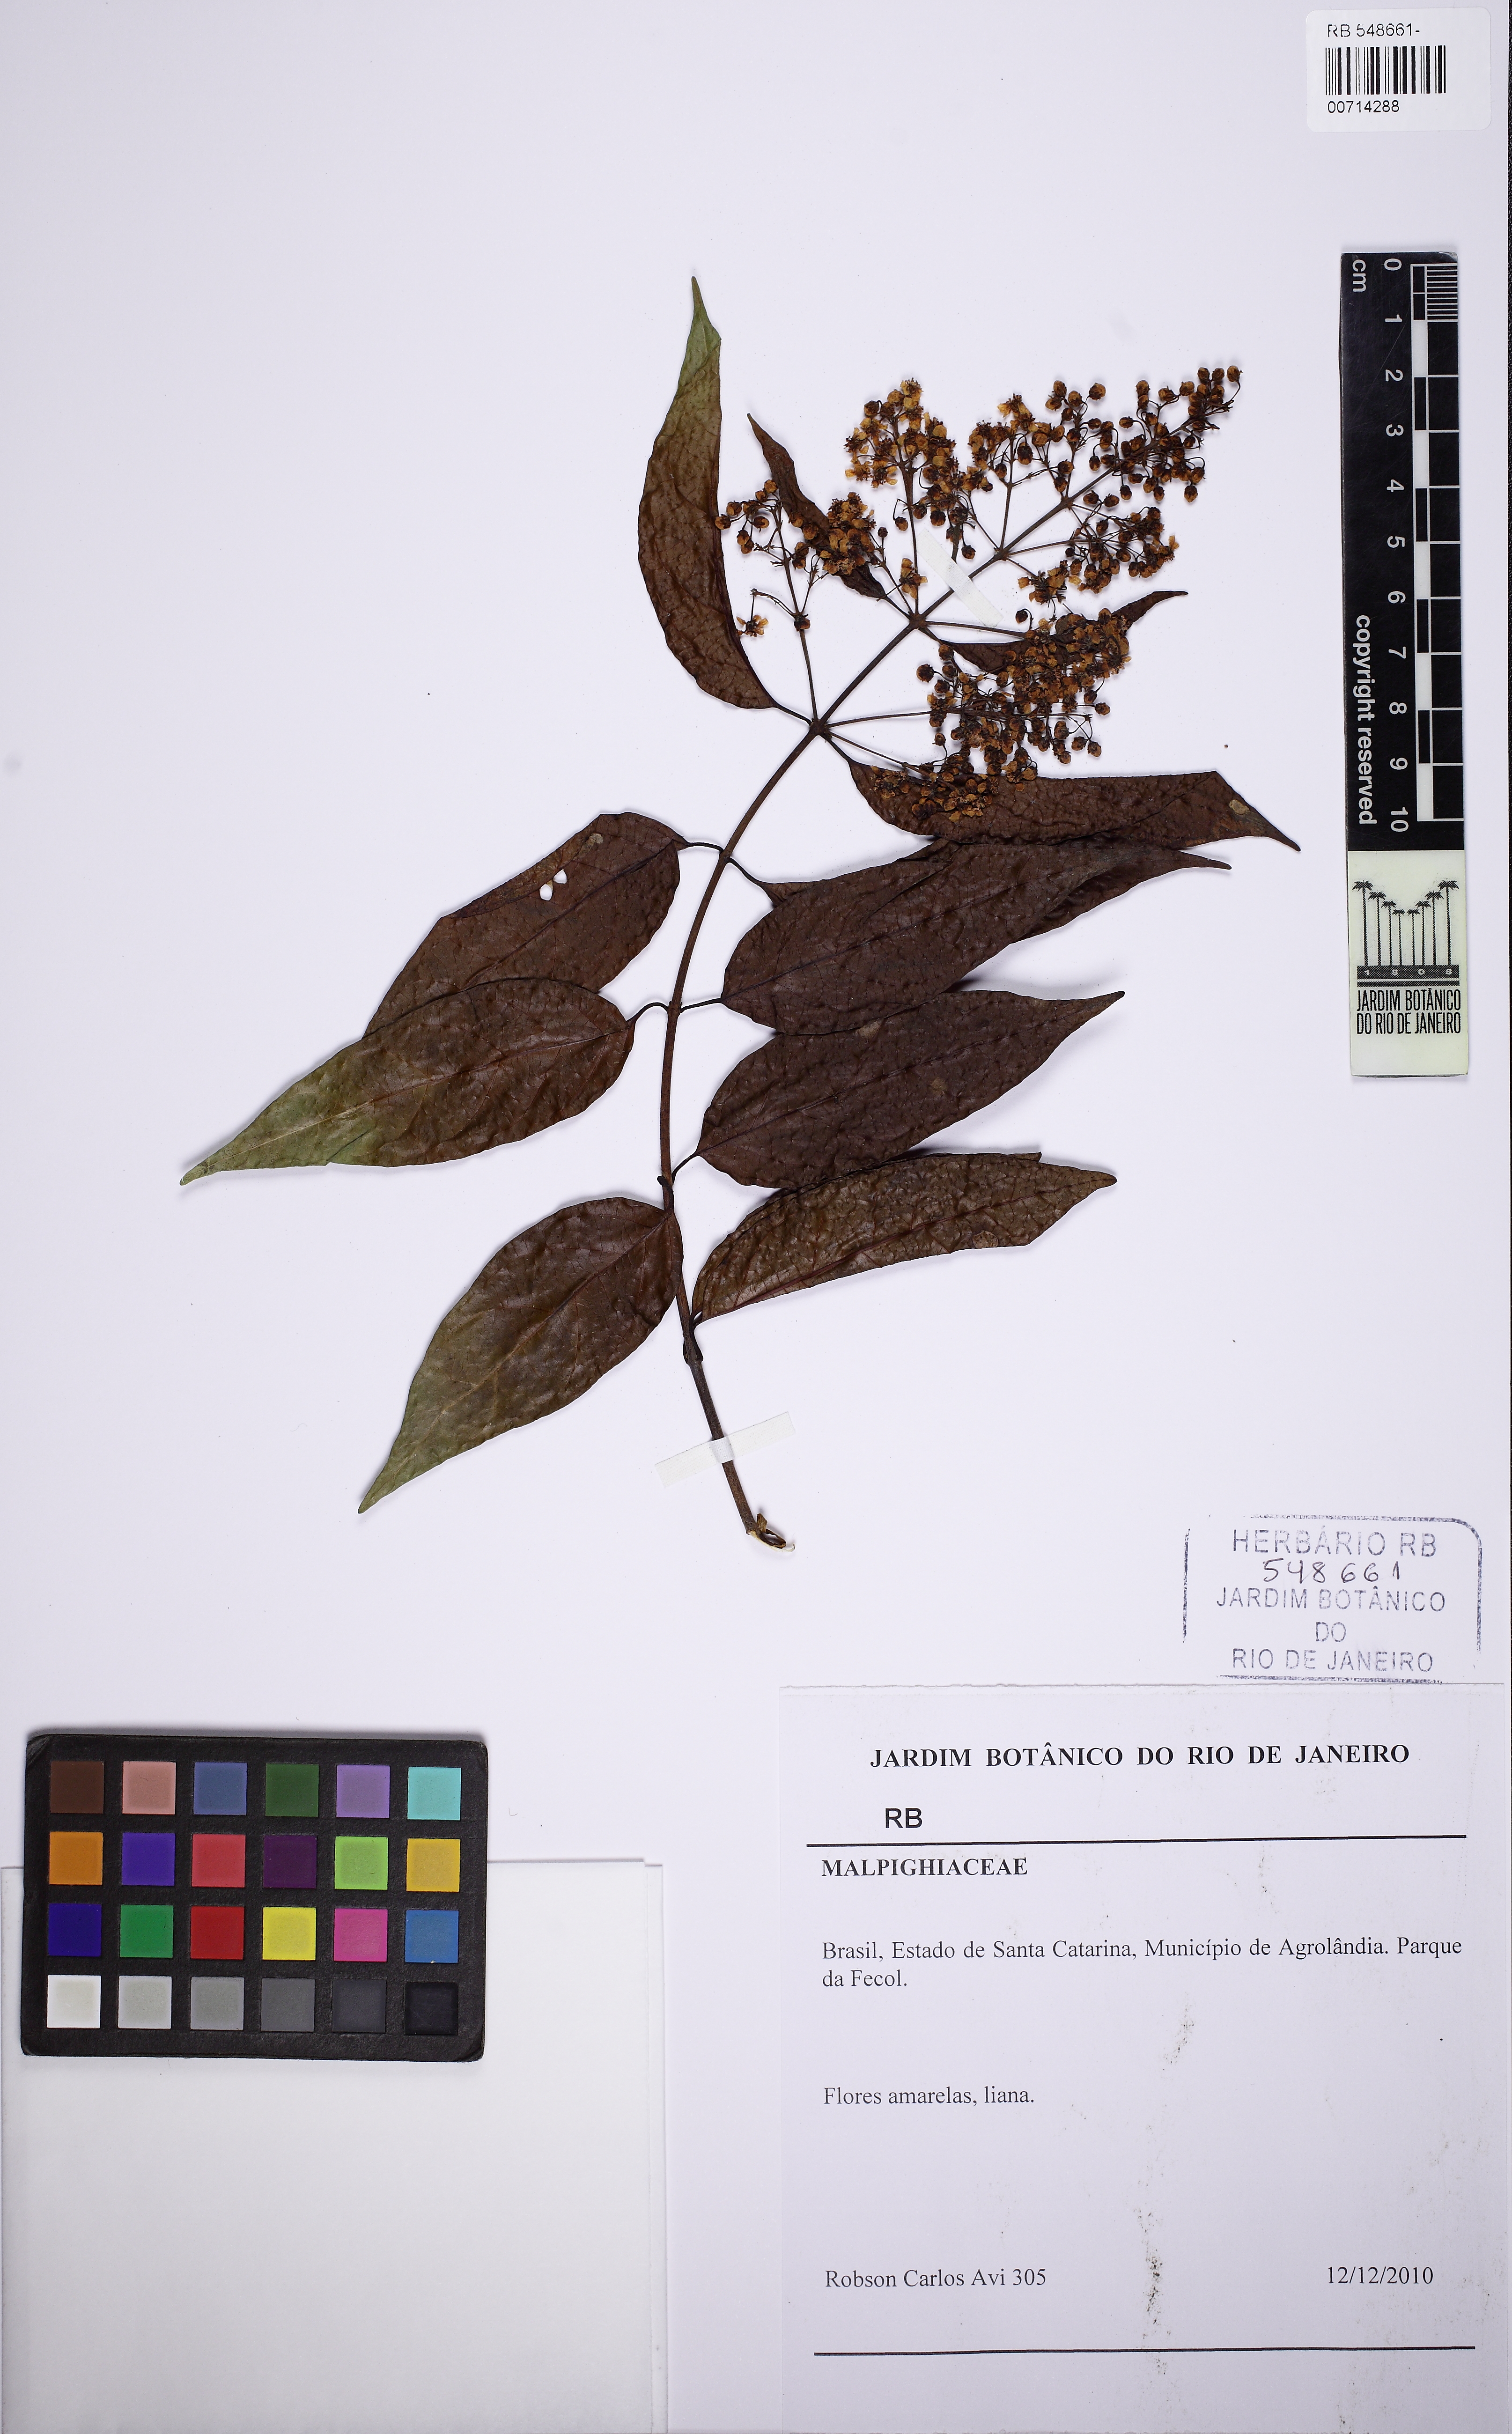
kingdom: Plantae
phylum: Tracheophyta
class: Magnoliopsida
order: Malpighiales
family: Malpighiaceae
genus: Niedenzuella
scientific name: Niedenzuella
